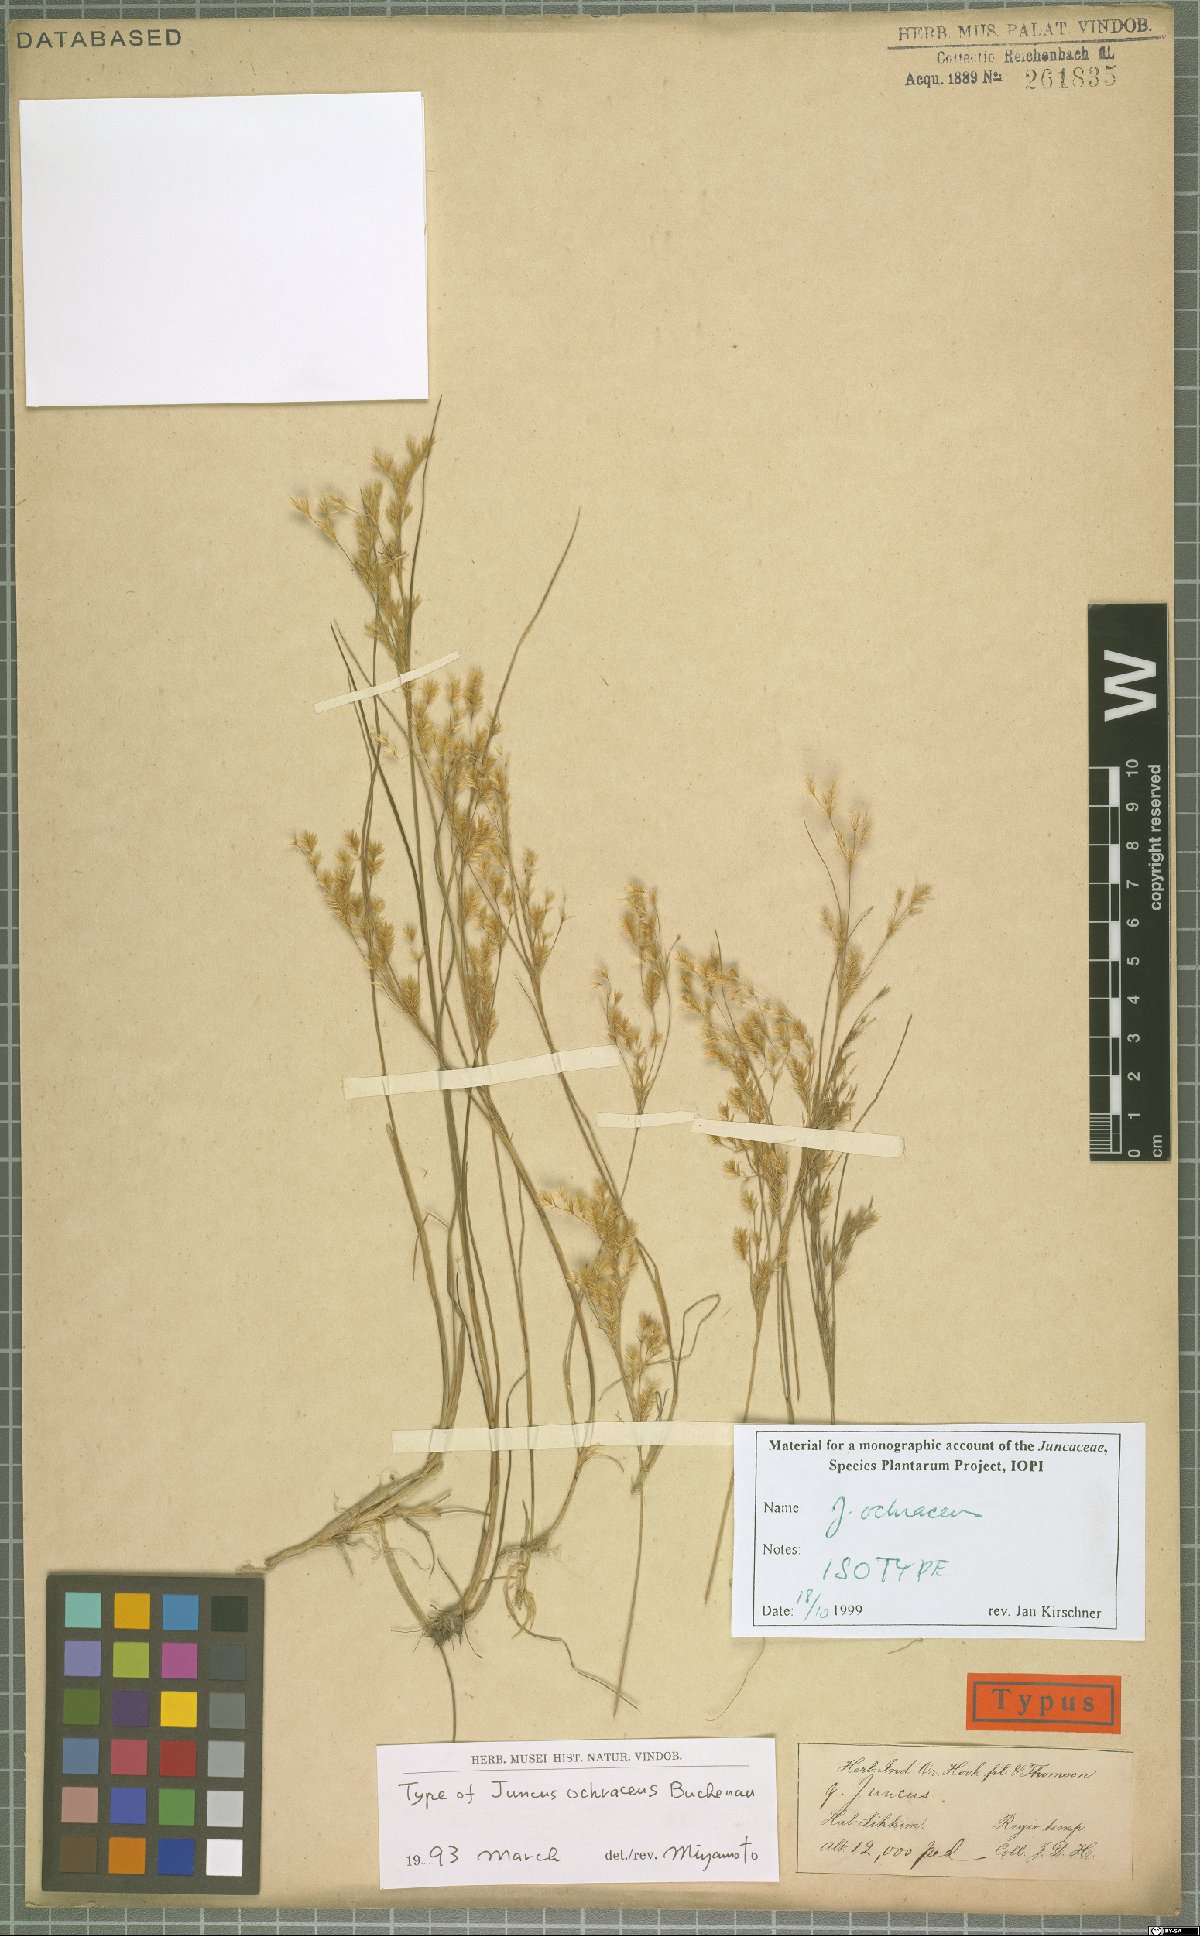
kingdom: Plantae
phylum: Tracheophyta
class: Liliopsida
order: Poales
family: Juncaceae
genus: Juncus
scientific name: Juncus ochraceus
